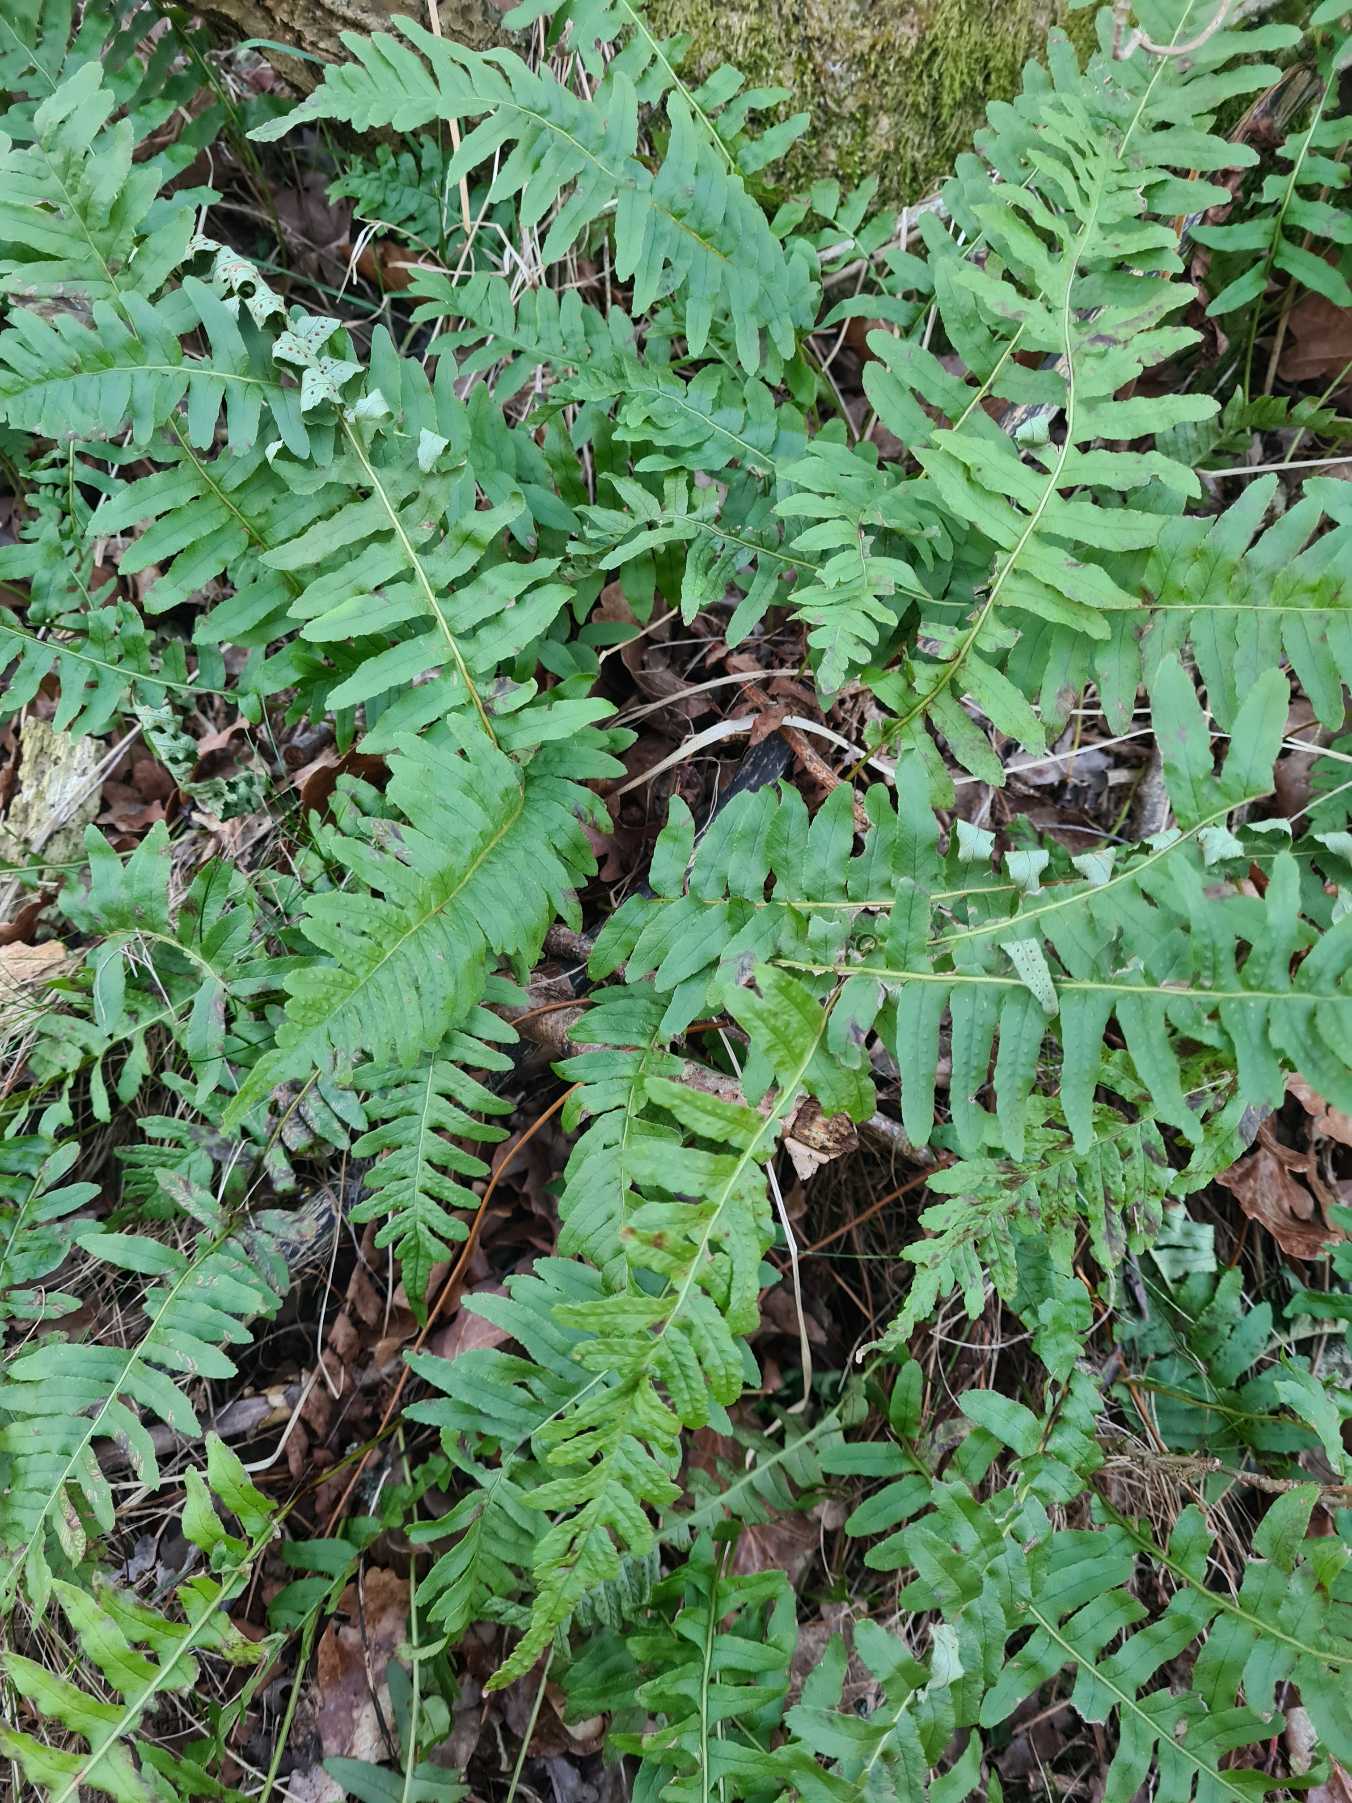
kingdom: Plantae
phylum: Tracheophyta
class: Polypodiopsida
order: Polypodiales
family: Polypodiaceae
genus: Polypodium
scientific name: Polypodium vulgare
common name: Almindelig engelsød
